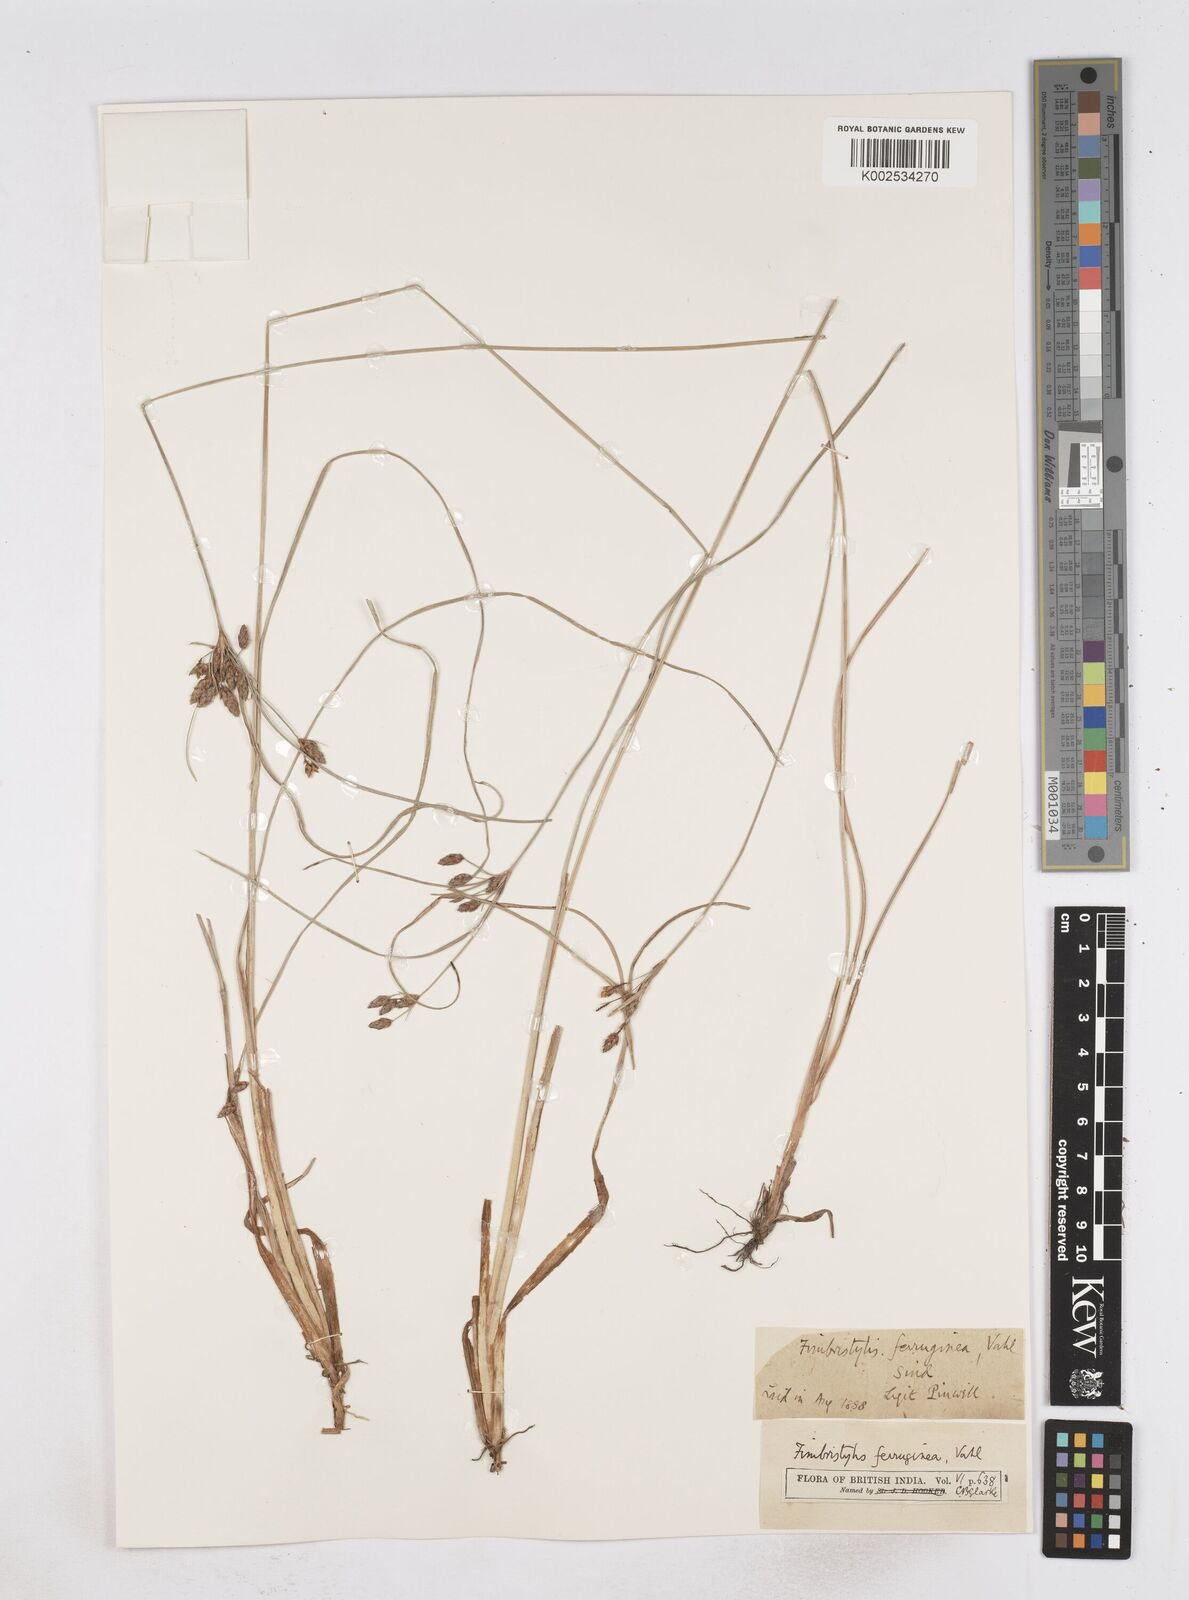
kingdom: Plantae
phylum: Tracheophyta
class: Liliopsida
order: Poales
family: Cyperaceae
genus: Fimbristylis
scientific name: Fimbristylis ferruginea
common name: West indian fimbry
